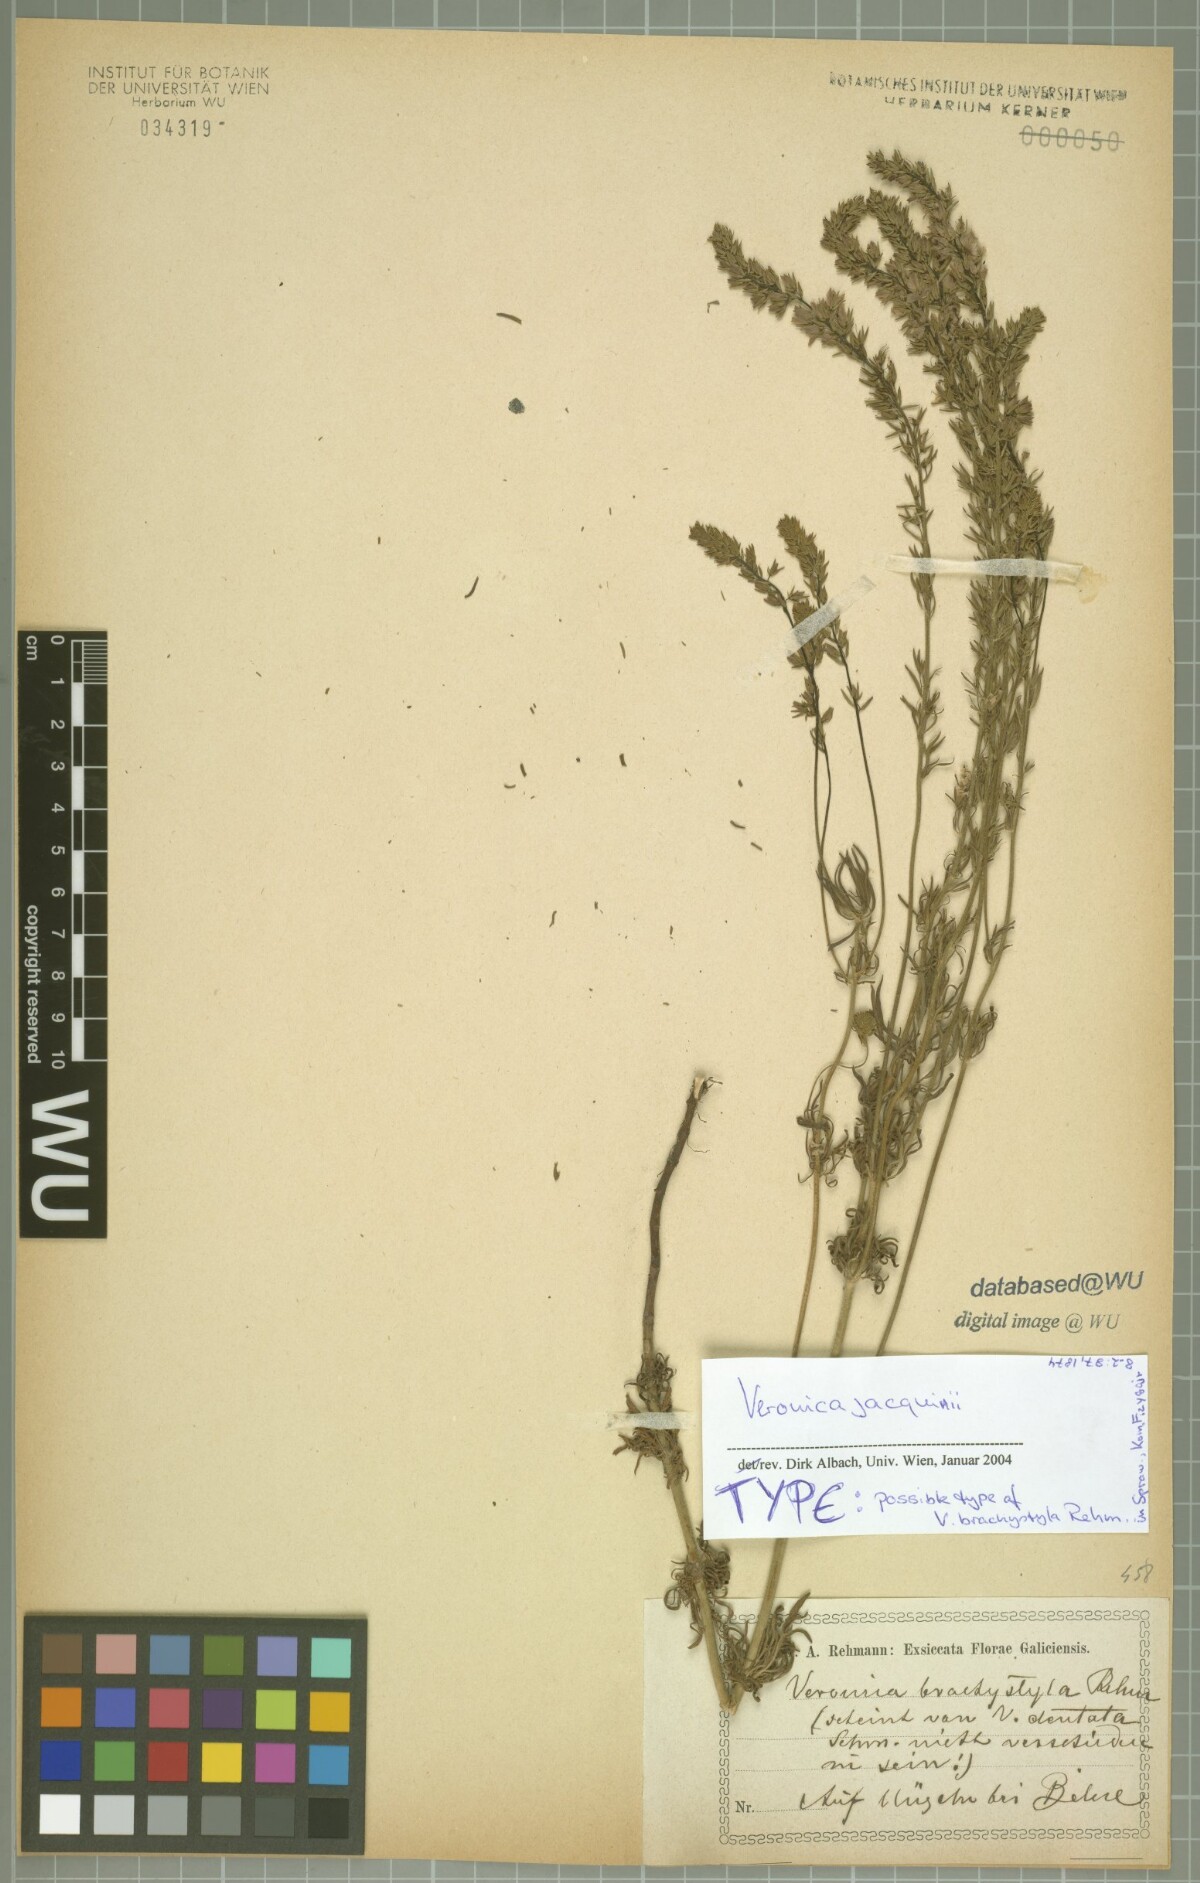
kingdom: Plantae
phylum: Tracheophyta
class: Magnoliopsida
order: Lamiales
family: Plantaginaceae
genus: Veronica
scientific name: Veronica austriaca
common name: Large speedwell
